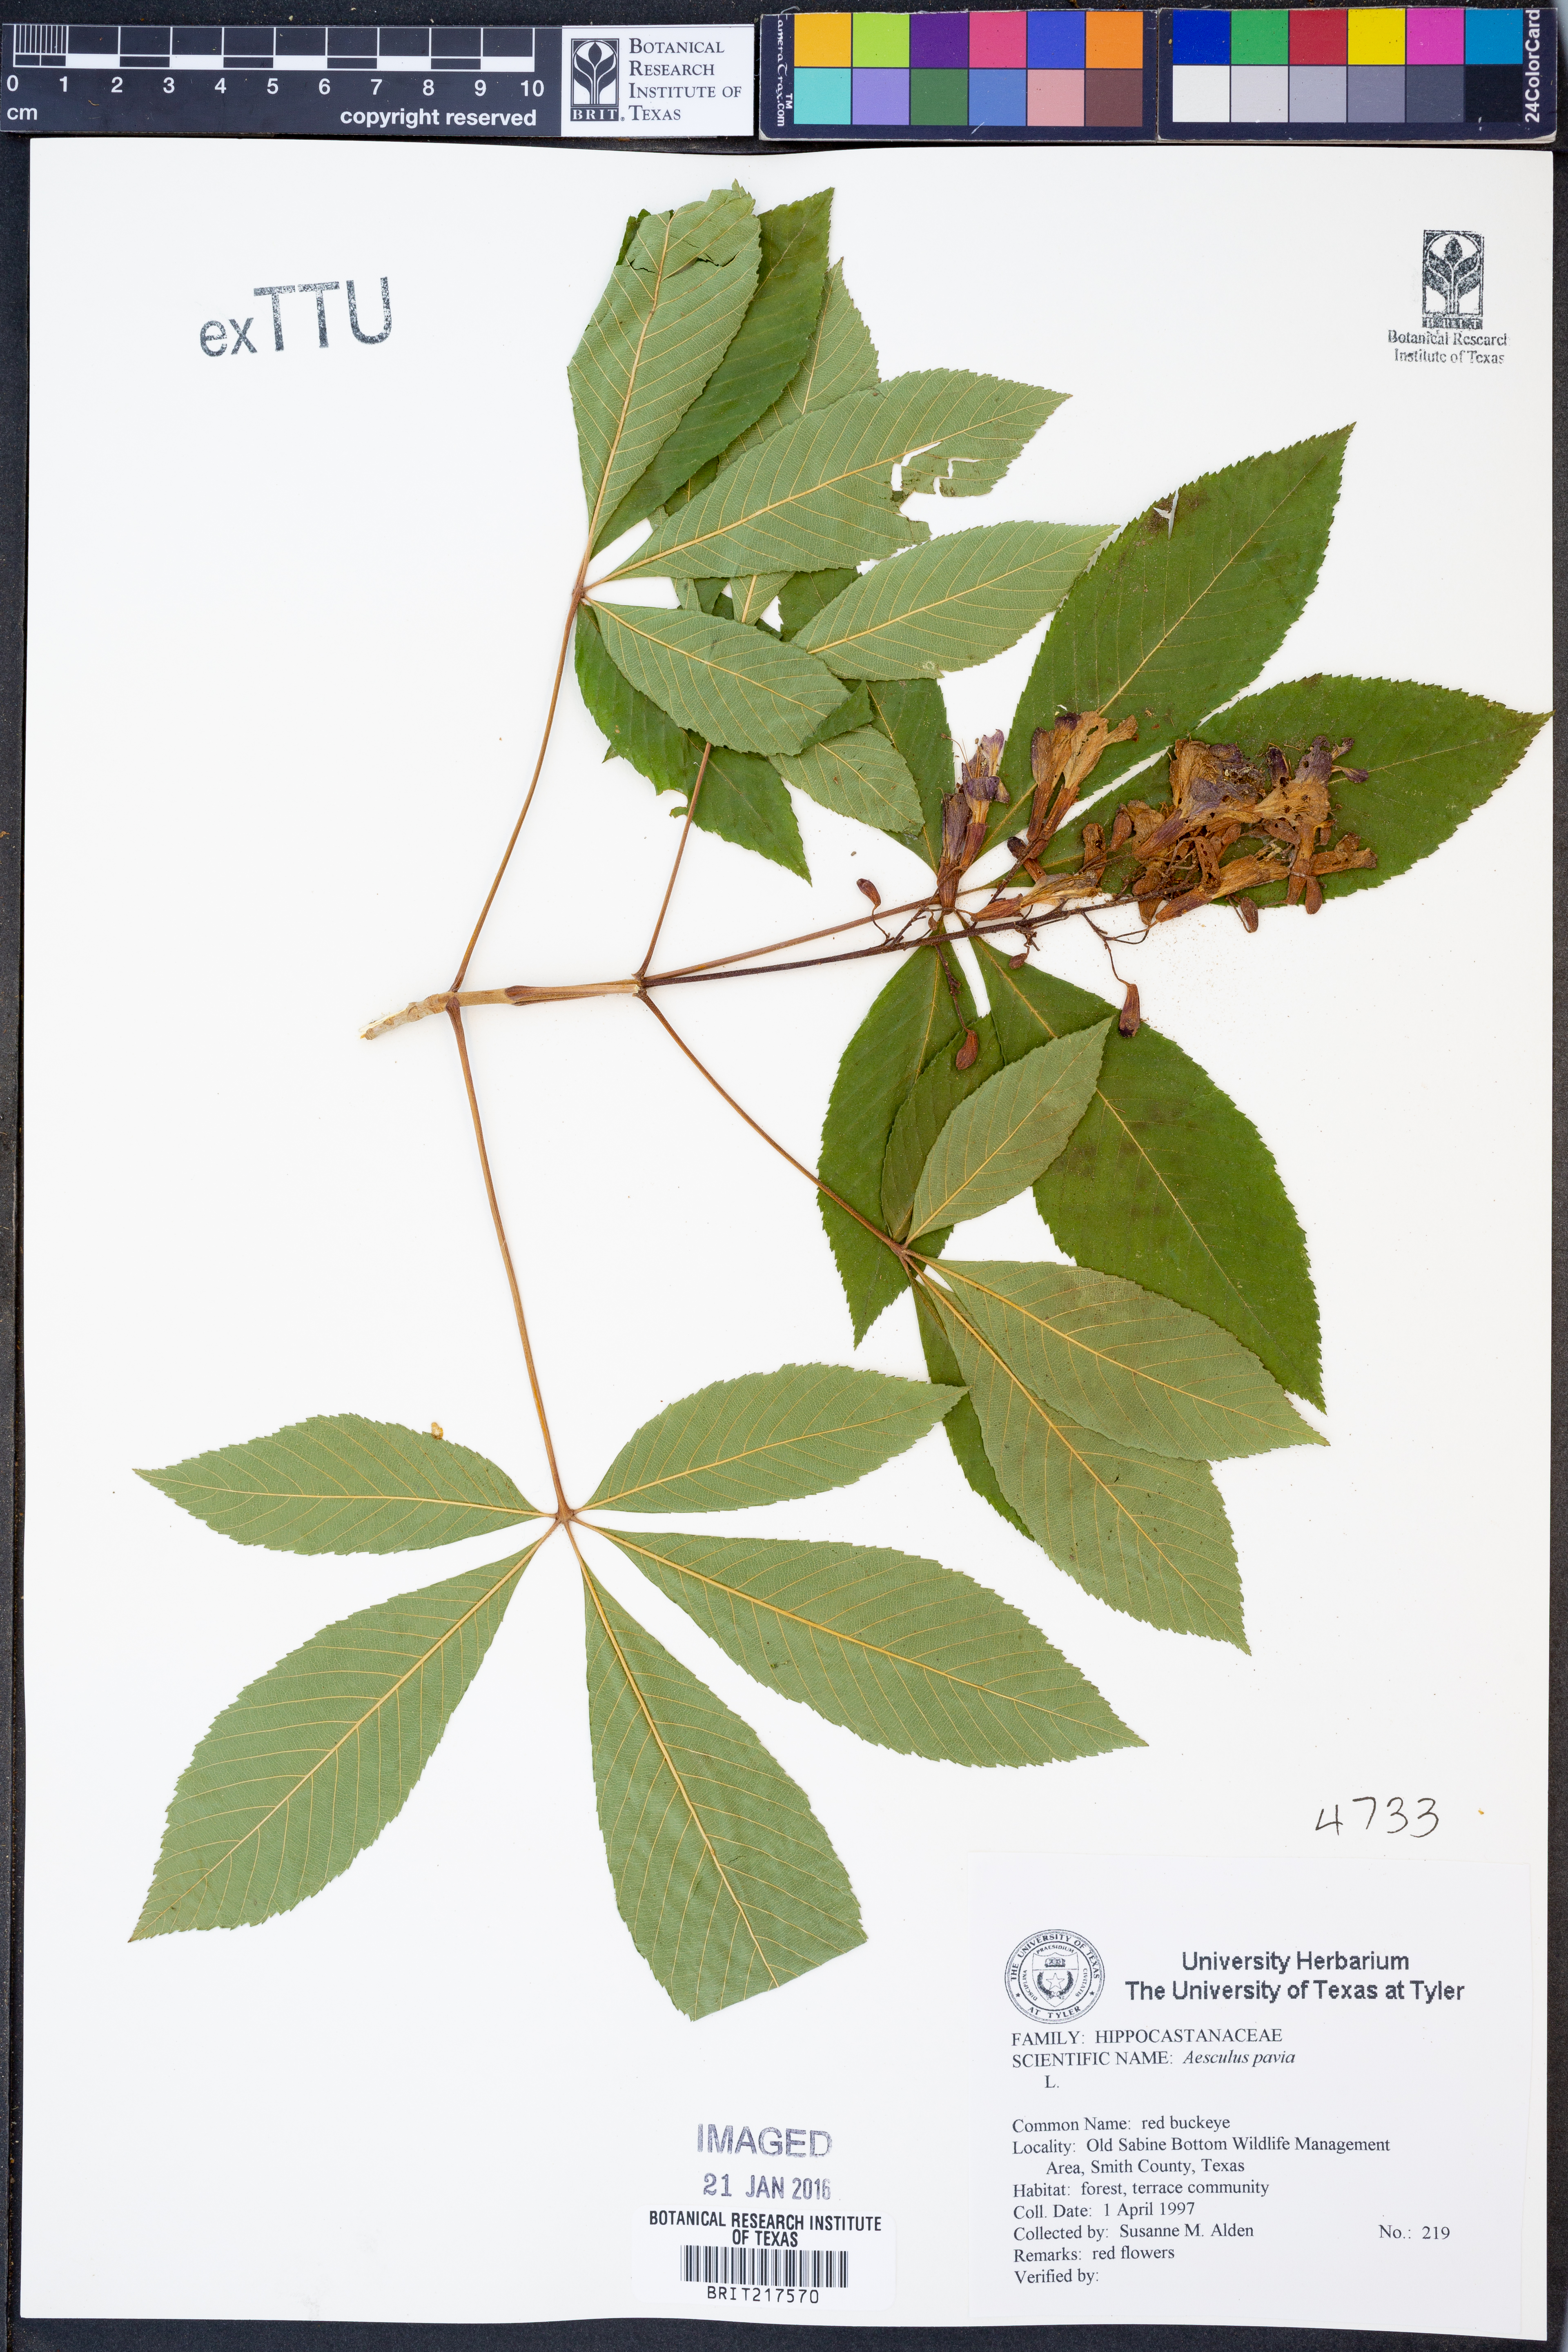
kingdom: Plantae
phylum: Tracheophyta
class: Magnoliopsida
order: Sapindales
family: Sapindaceae
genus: Aesculus
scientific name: Aesculus pavia
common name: Red buckeye
